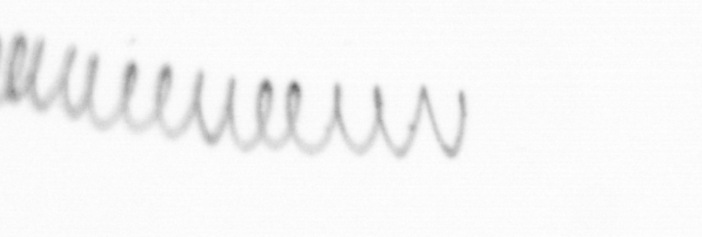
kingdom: Chromista
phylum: Ochrophyta
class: Bacillariophyceae
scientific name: Bacillariophyceae
